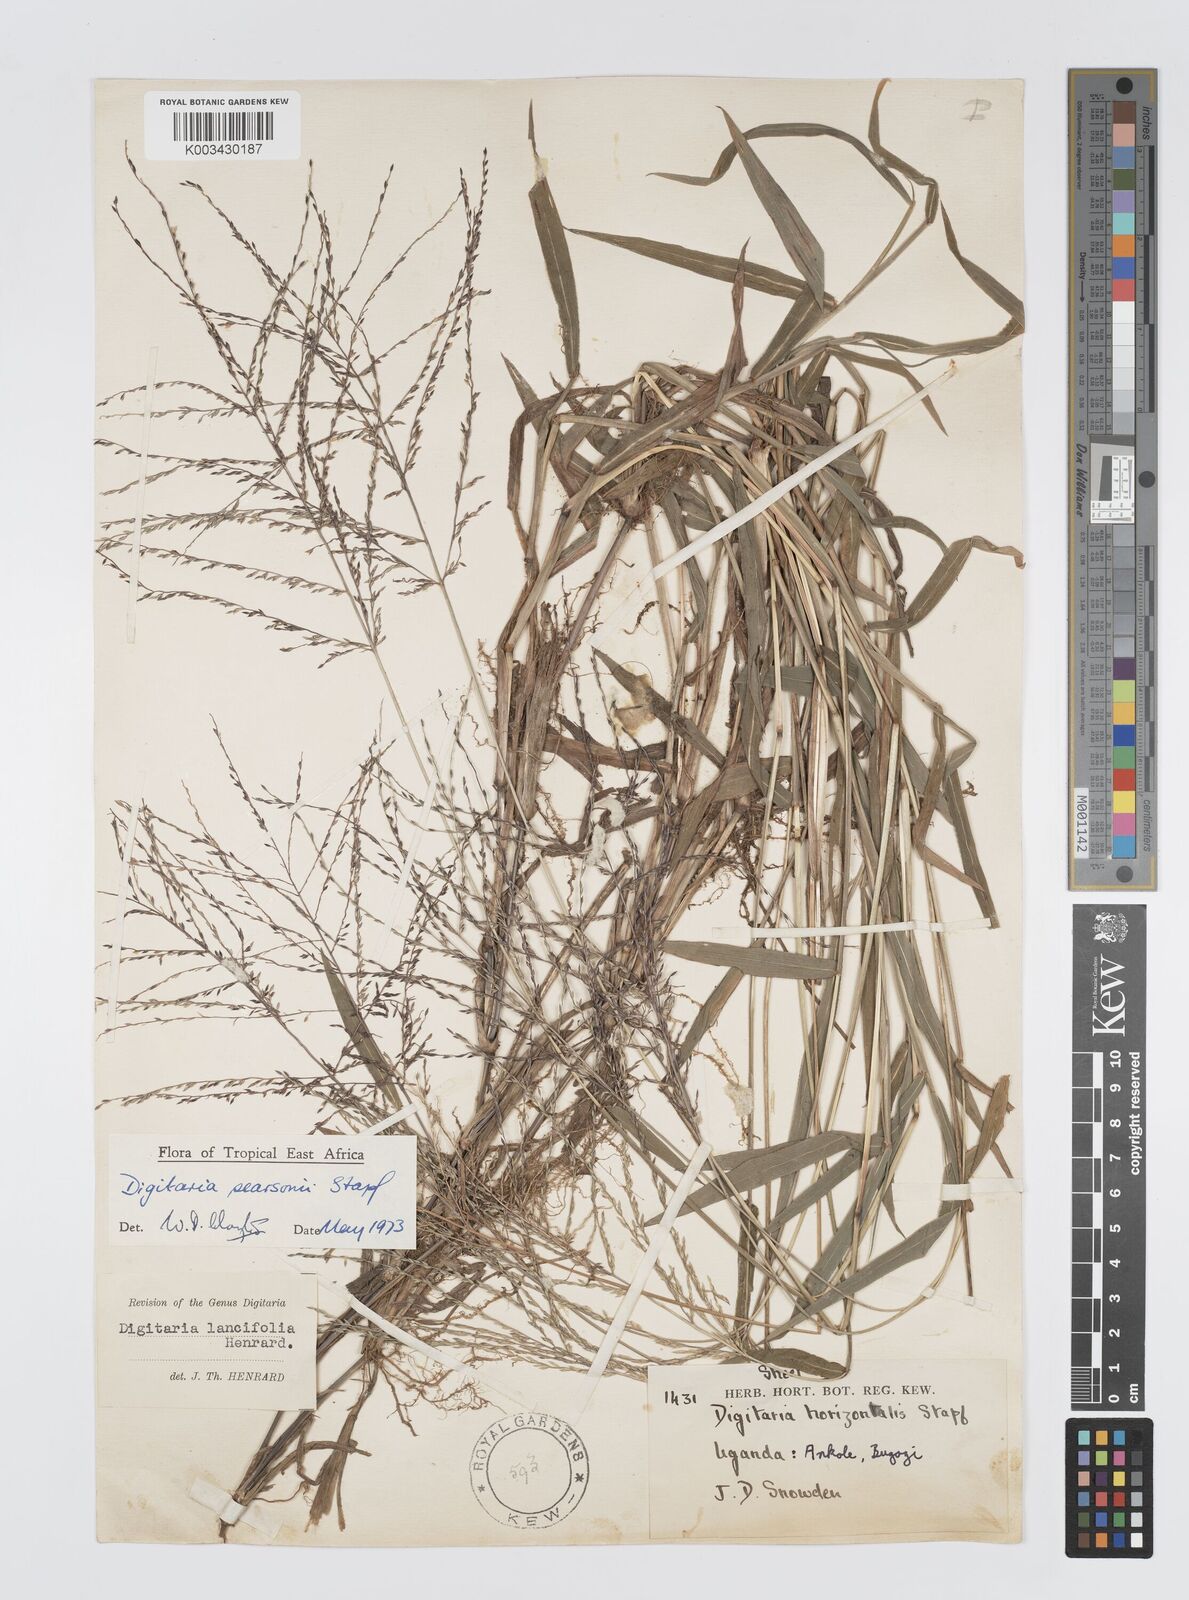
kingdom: Plantae
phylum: Tracheophyta
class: Liliopsida
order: Poales
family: Poaceae
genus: Digitaria
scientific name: Digitaria pearsonii
